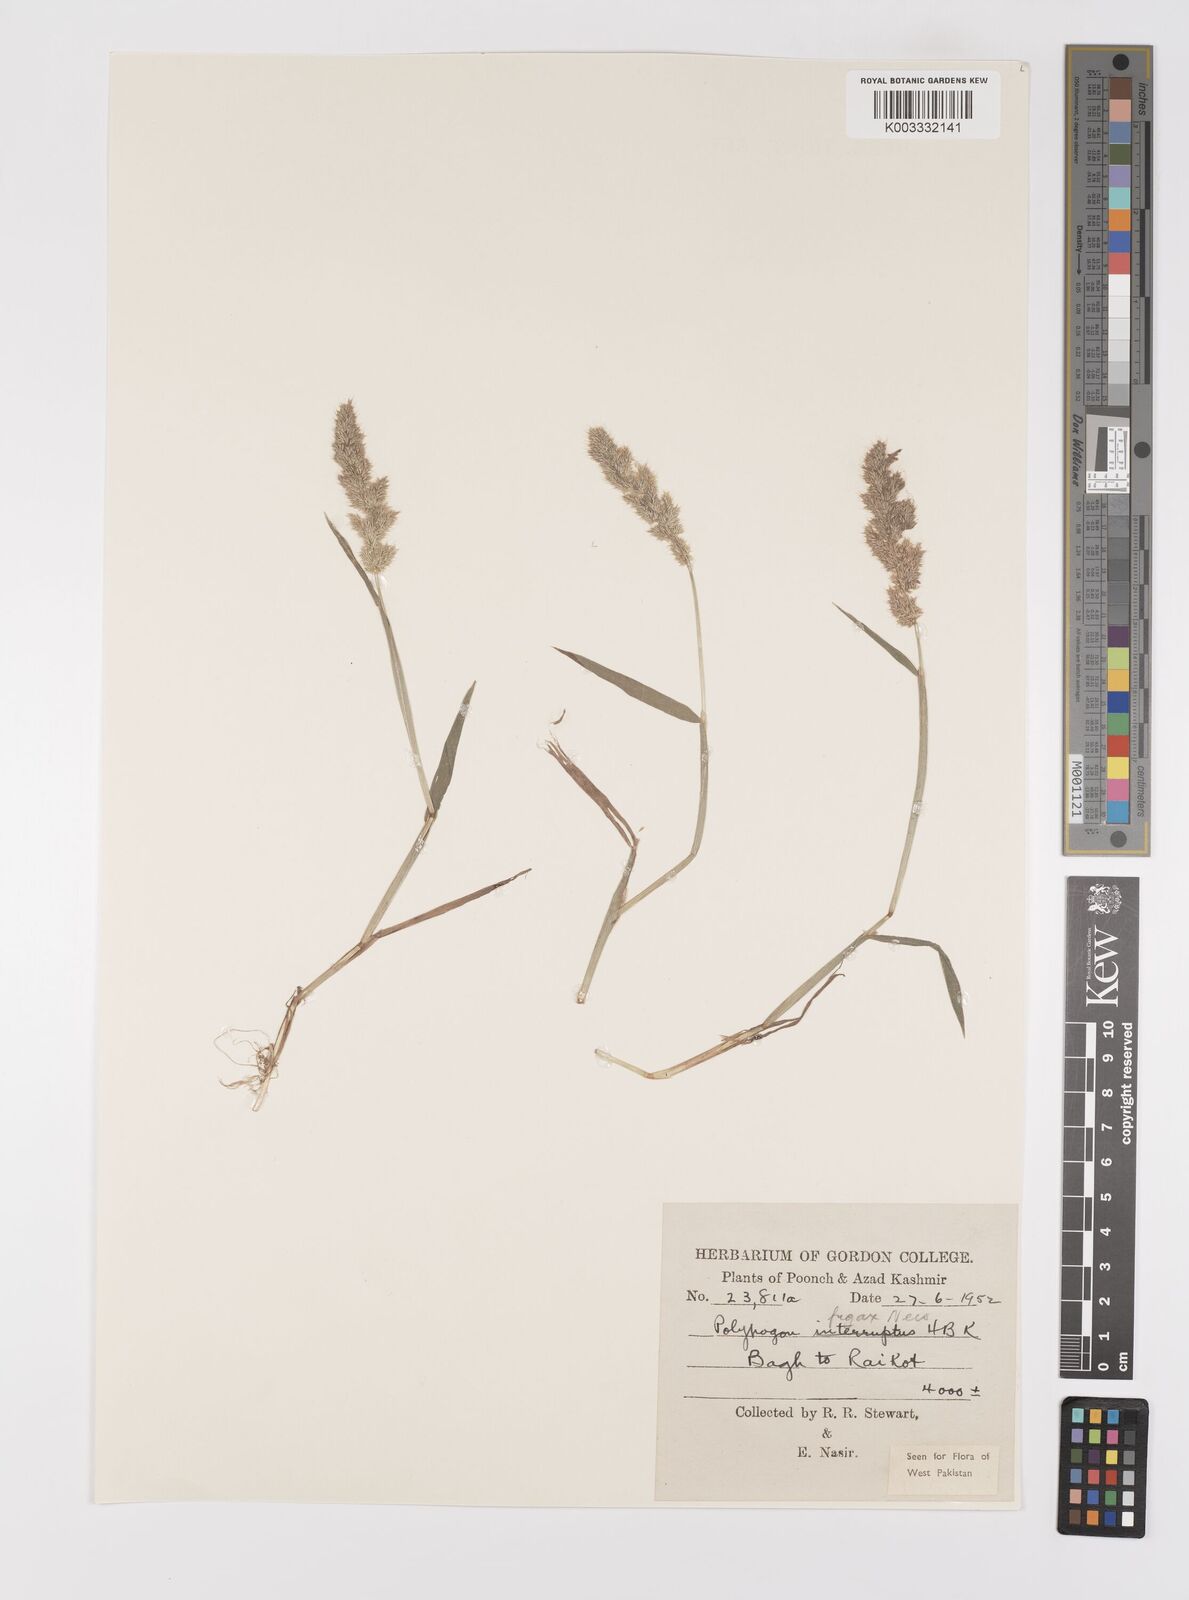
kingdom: Plantae
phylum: Tracheophyta
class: Liliopsida
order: Poales
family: Poaceae
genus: Polypogon
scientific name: Polypogon fugax
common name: Asia minor bluegrass
